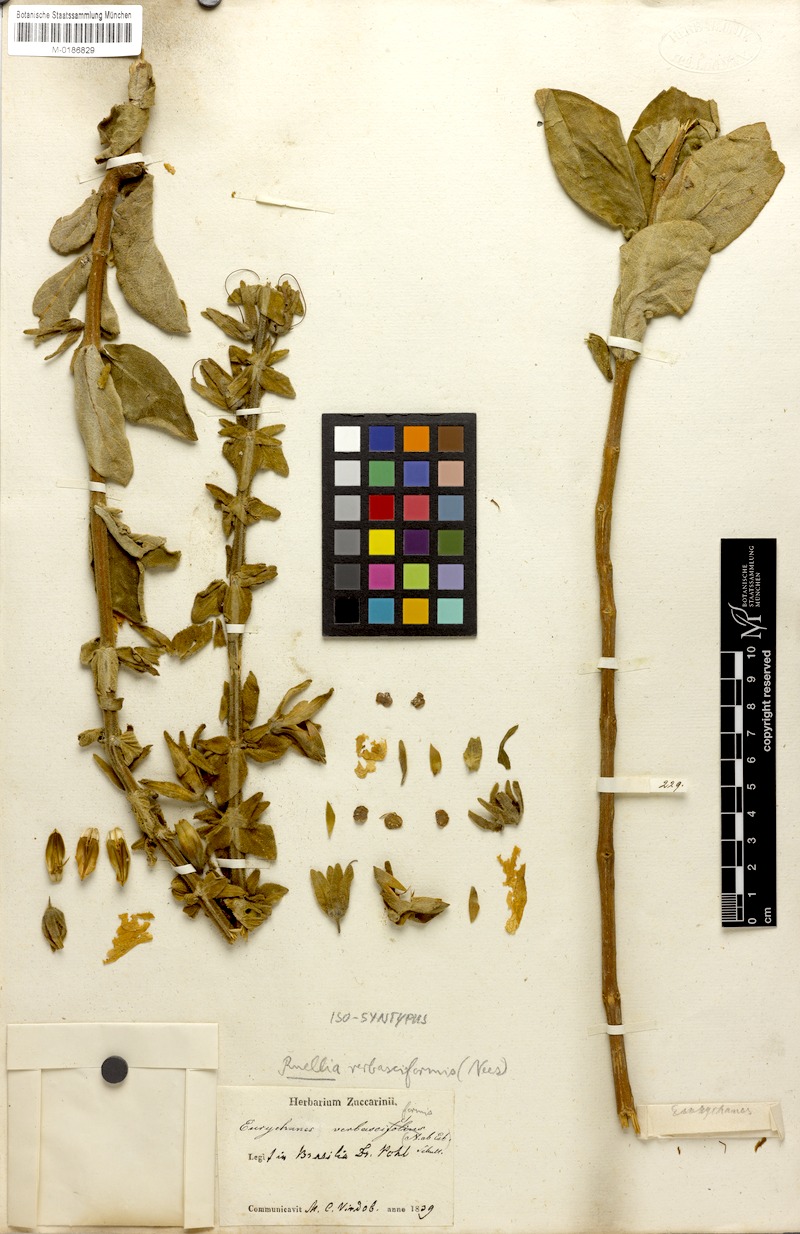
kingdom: Plantae
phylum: Tracheophyta
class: Magnoliopsida
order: Lamiales
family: Acanthaceae
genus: Ruellia
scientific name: Ruellia verbasciformis
